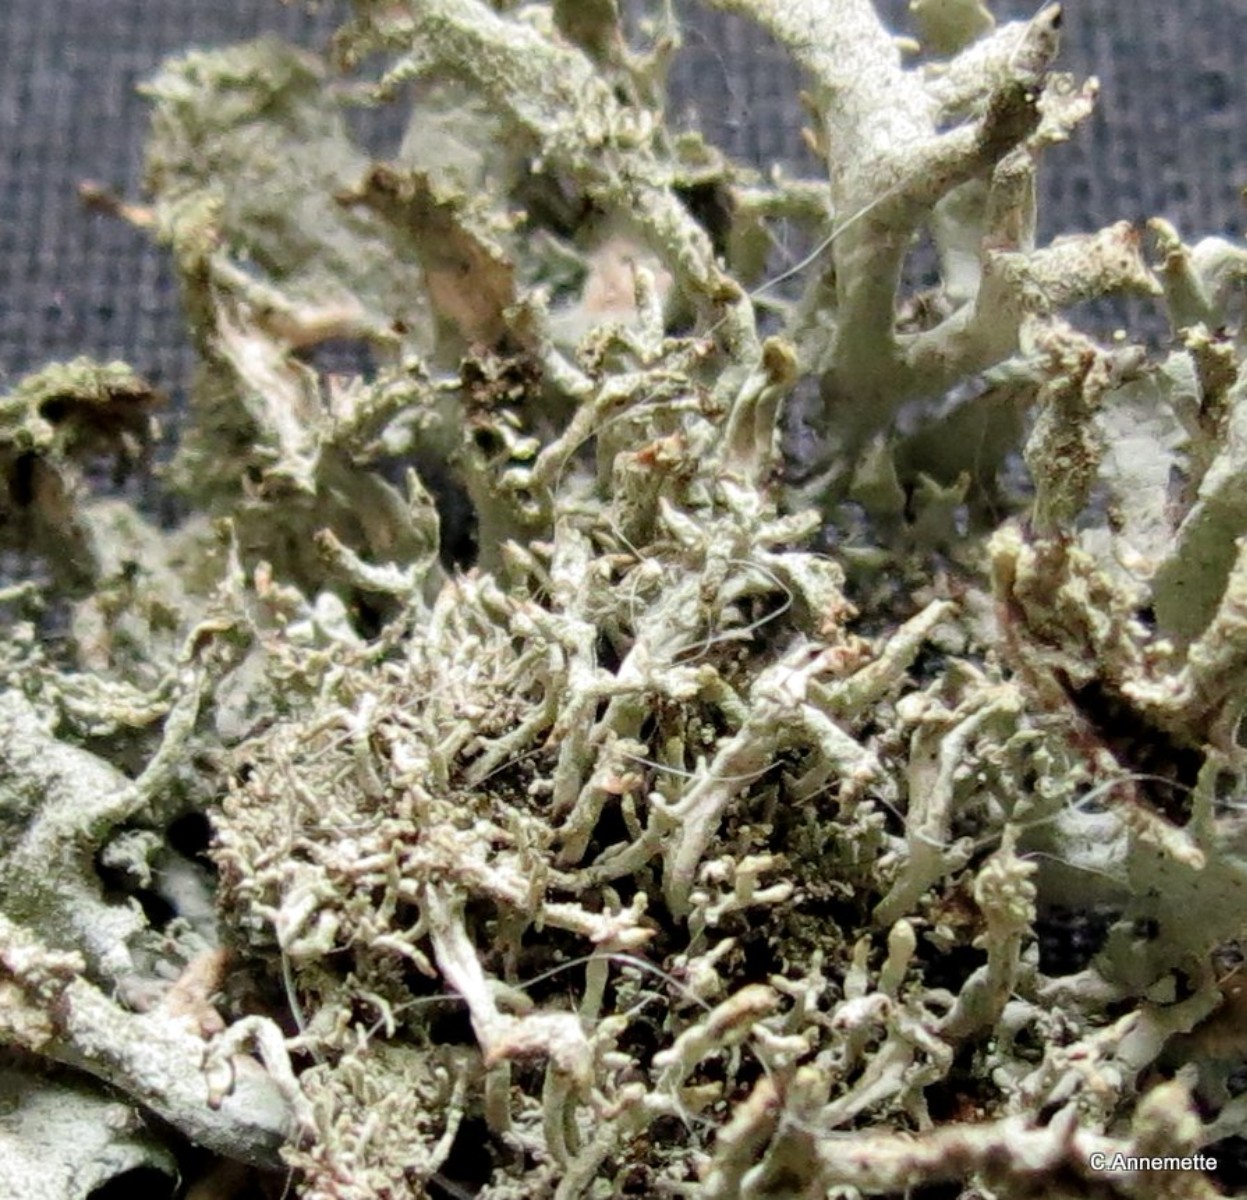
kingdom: Fungi
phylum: Ascomycota
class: Lecanoromycetes
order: Lecanorales
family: Parmeliaceae
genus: Pseudevernia
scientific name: Pseudevernia furfuracea
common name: grå fyrrelav
